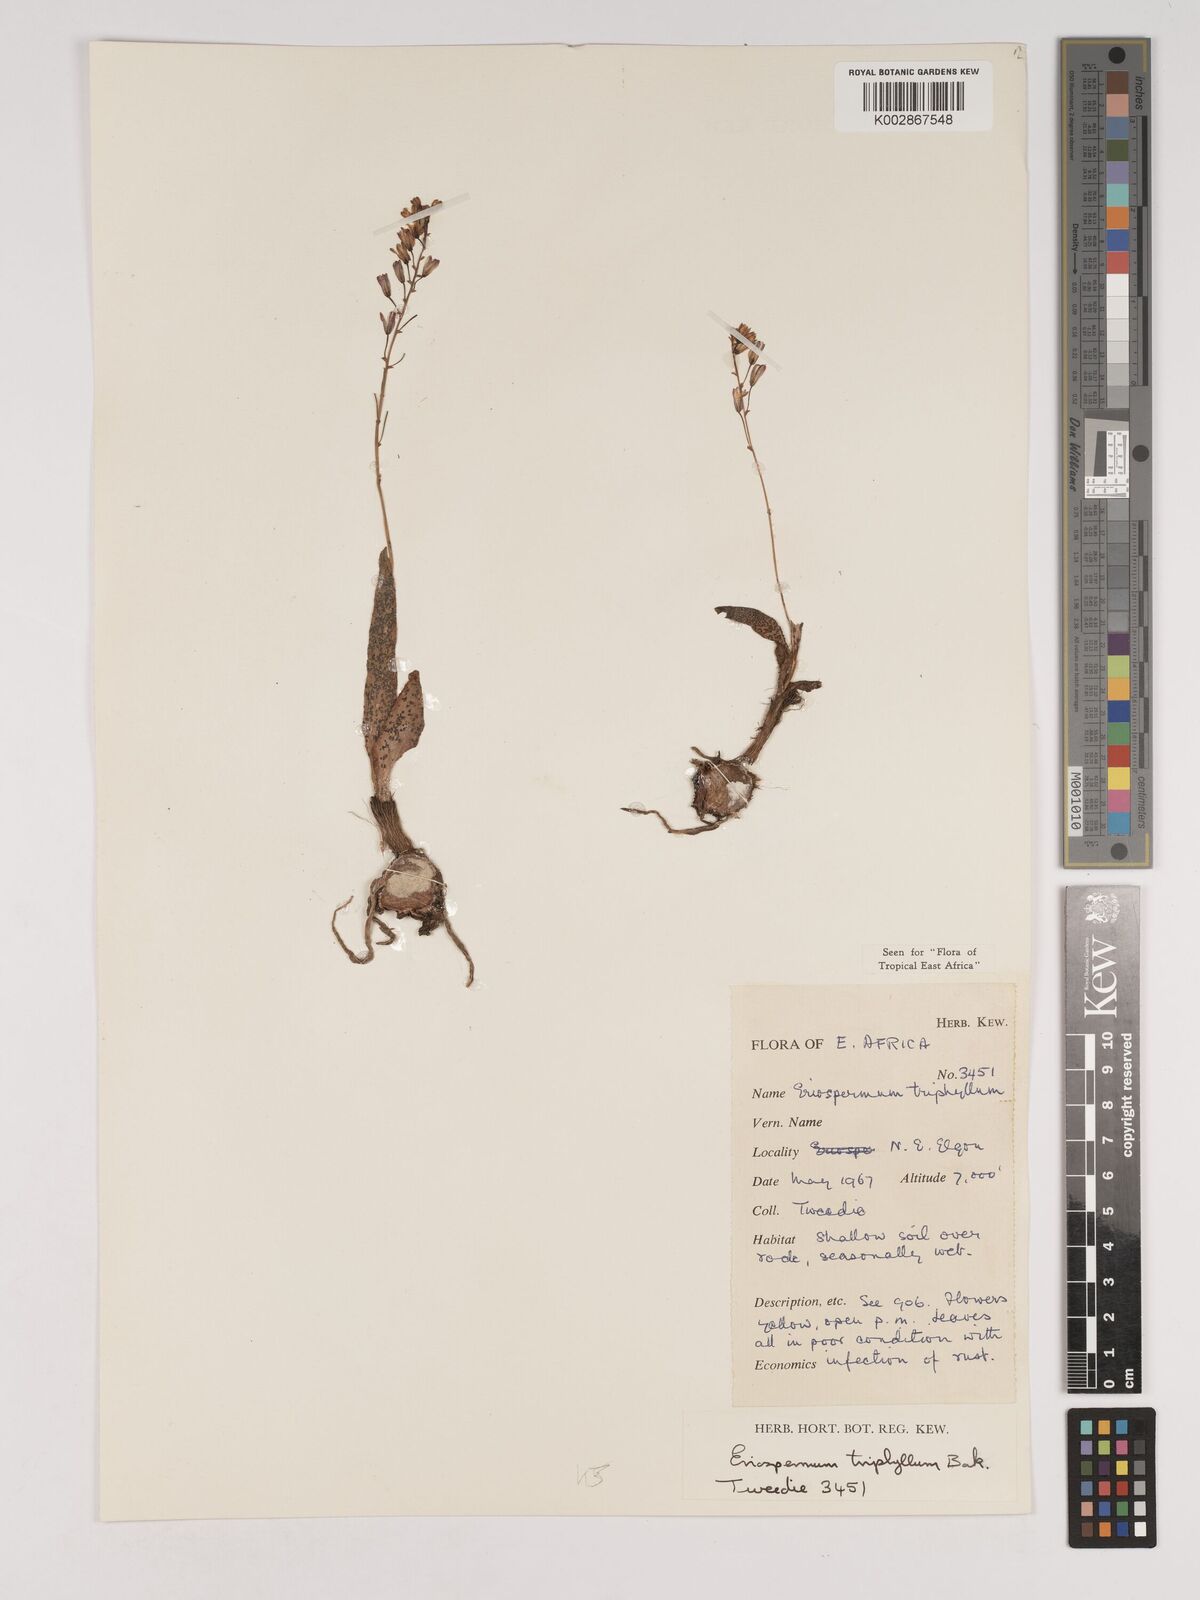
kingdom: Plantae
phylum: Tracheophyta
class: Liliopsida
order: Asparagales
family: Asparagaceae
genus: Eriospermum
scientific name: Eriospermum triphyllum
